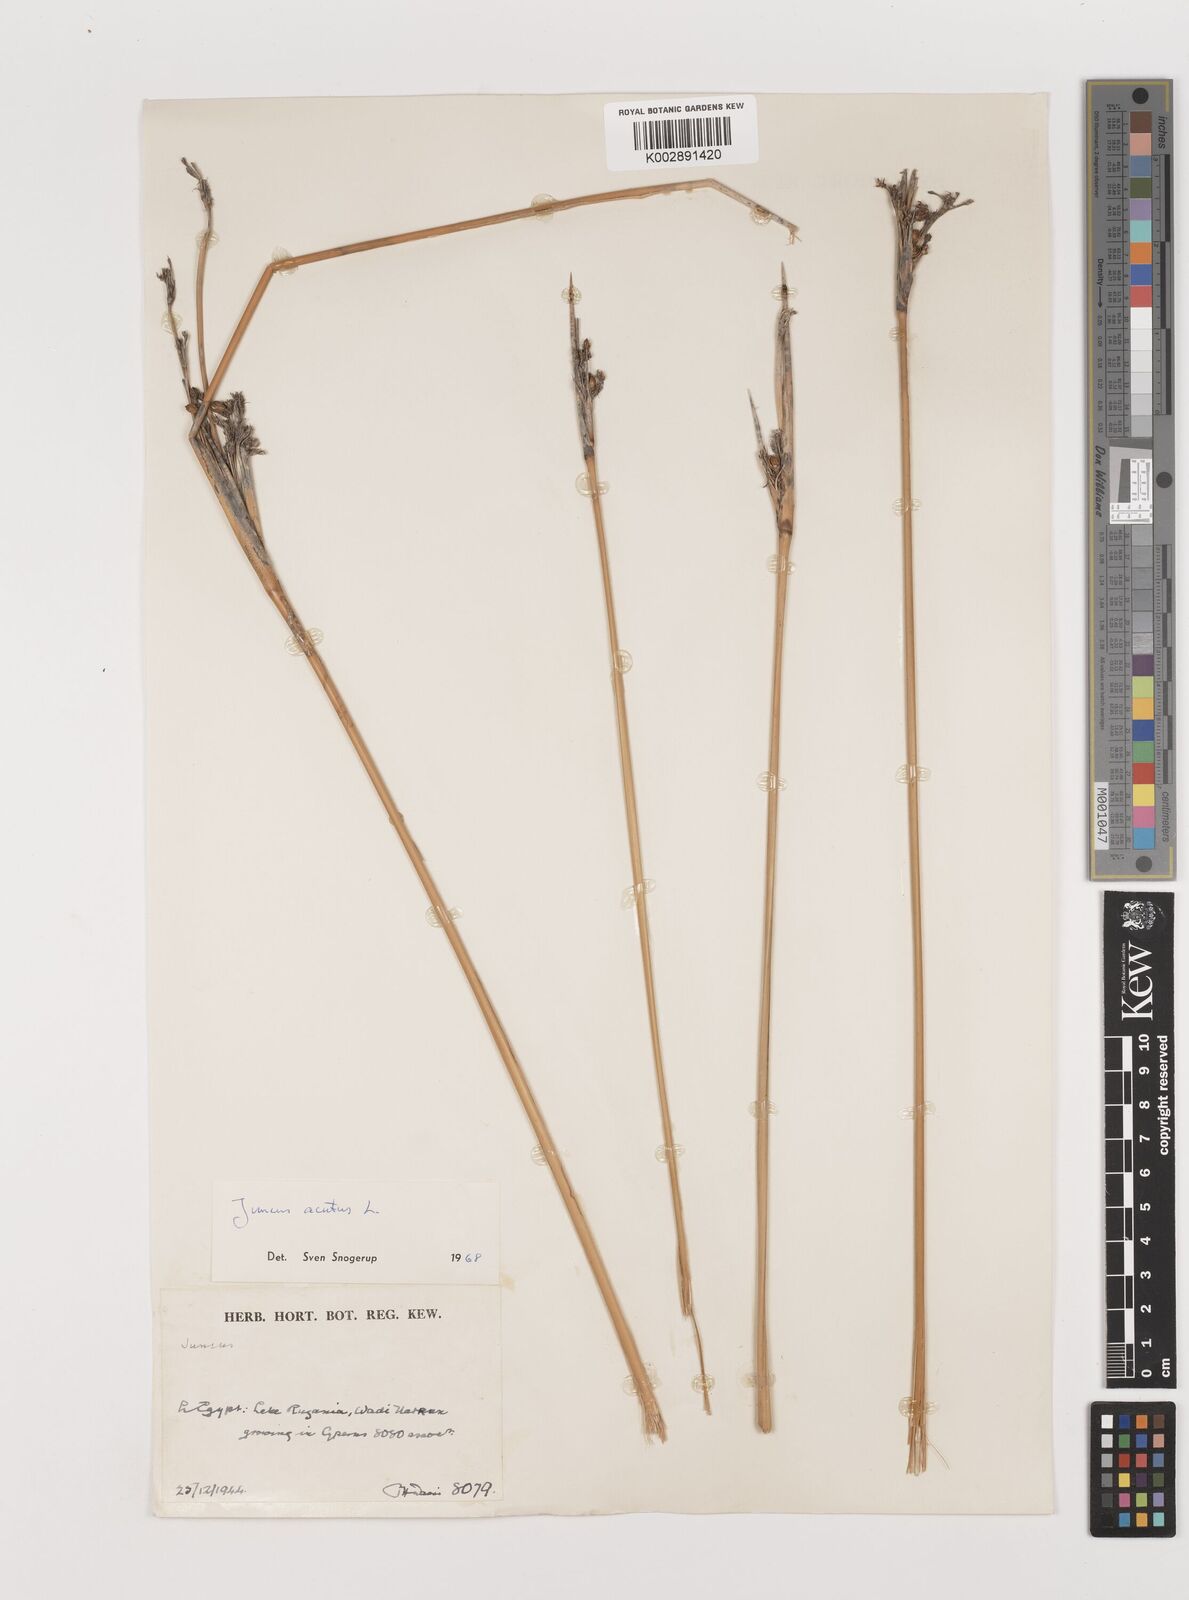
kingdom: Plantae
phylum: Tracheophyta
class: Liliopsida
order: Poales
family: Juncaceae
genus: Juncus
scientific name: Juncus acutus
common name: Sharp rush
